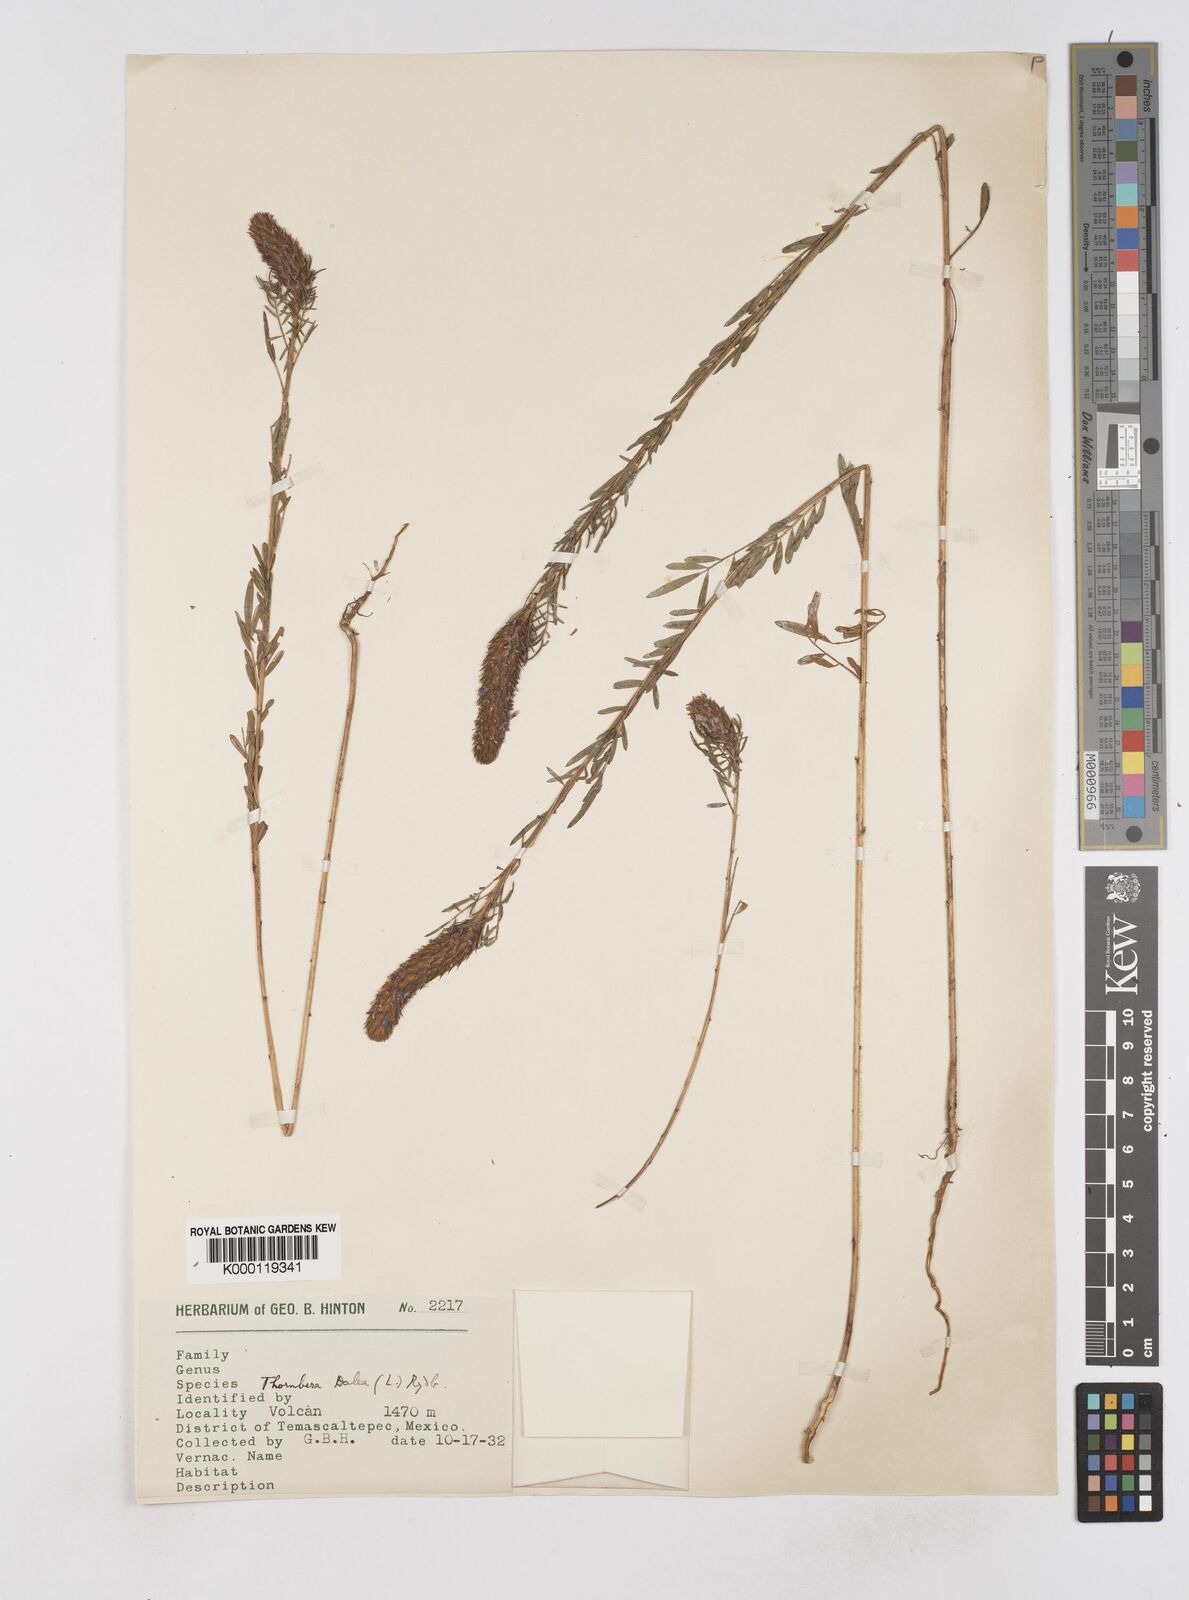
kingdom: Plantae
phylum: Tracheophyta
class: Magnoliopsida
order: Fabales
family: Fabaceae
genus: Dalea
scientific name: Dalea cliffortiana
